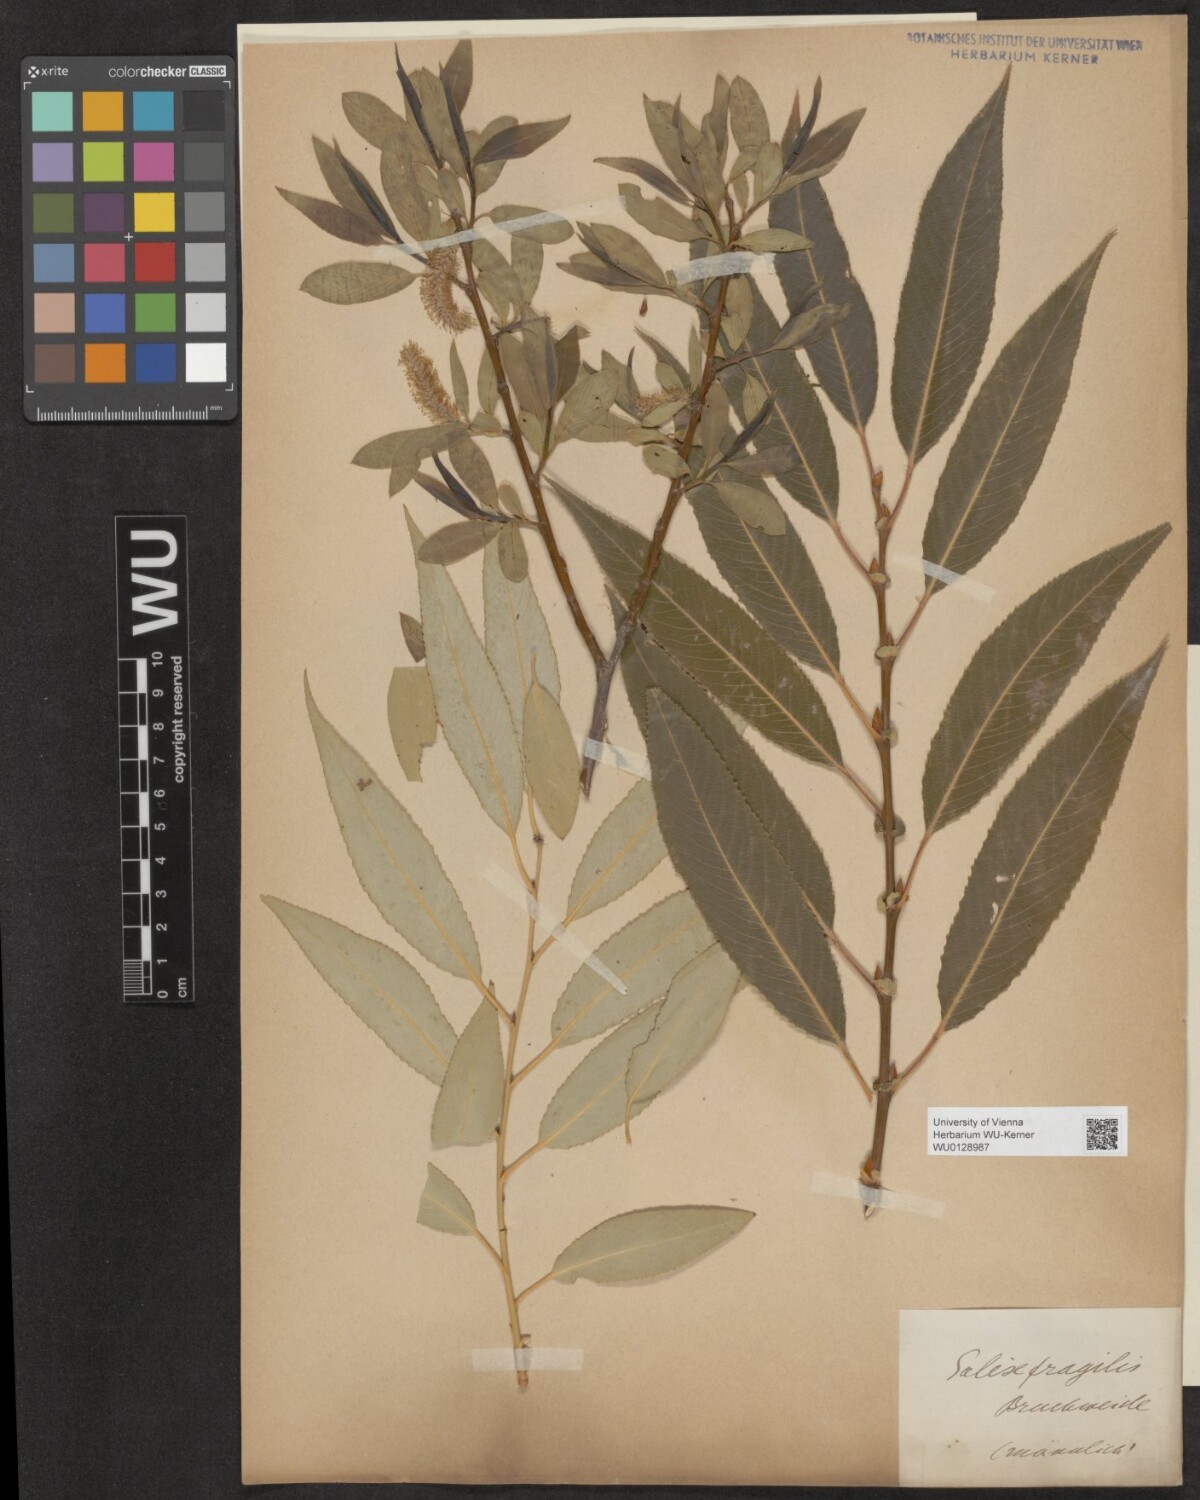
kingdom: Plantae
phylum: Tracheophyta
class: Magnoliopsida
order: Malpighiales
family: Salicaceae
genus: Salix
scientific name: Salix fragilis
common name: Crack willow
